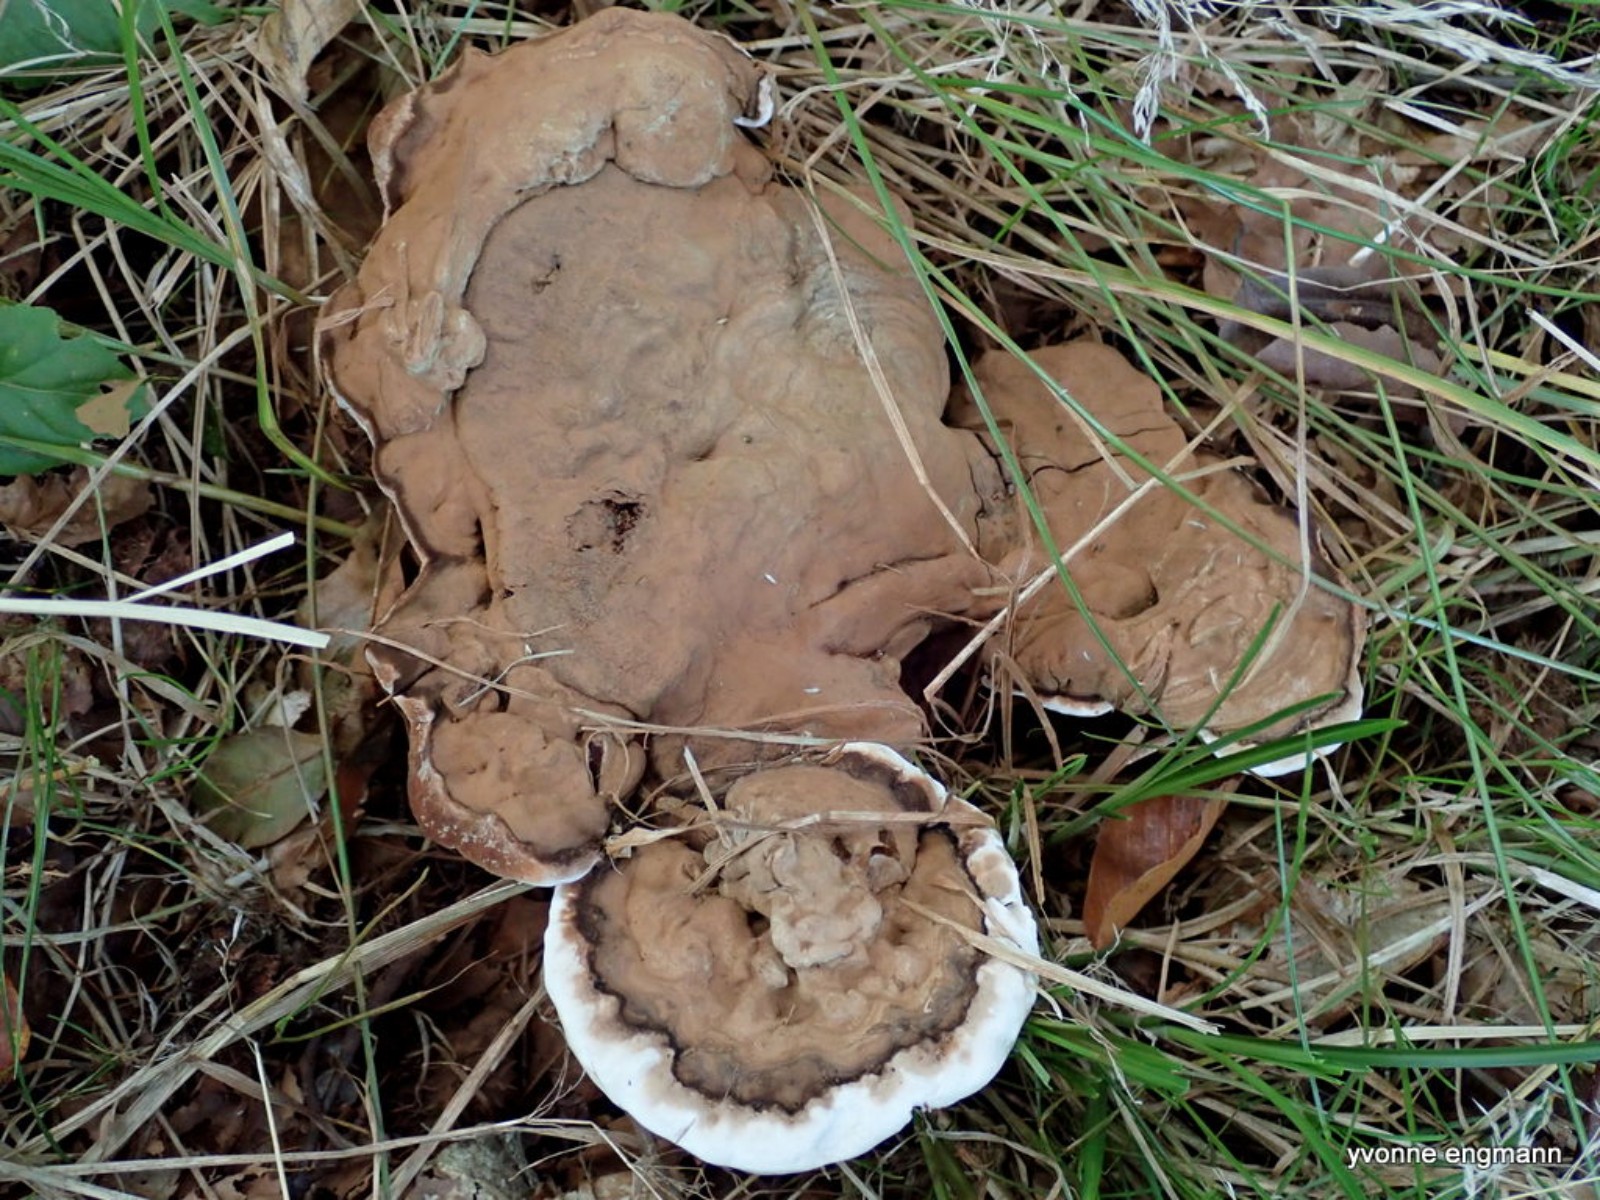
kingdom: Fungi
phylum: Basidiomycota
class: Agaricomycetes
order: Polyporales
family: Polyporaceae
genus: Ganoderma
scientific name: Ganoderma applanatum
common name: flad lakporesvamp
